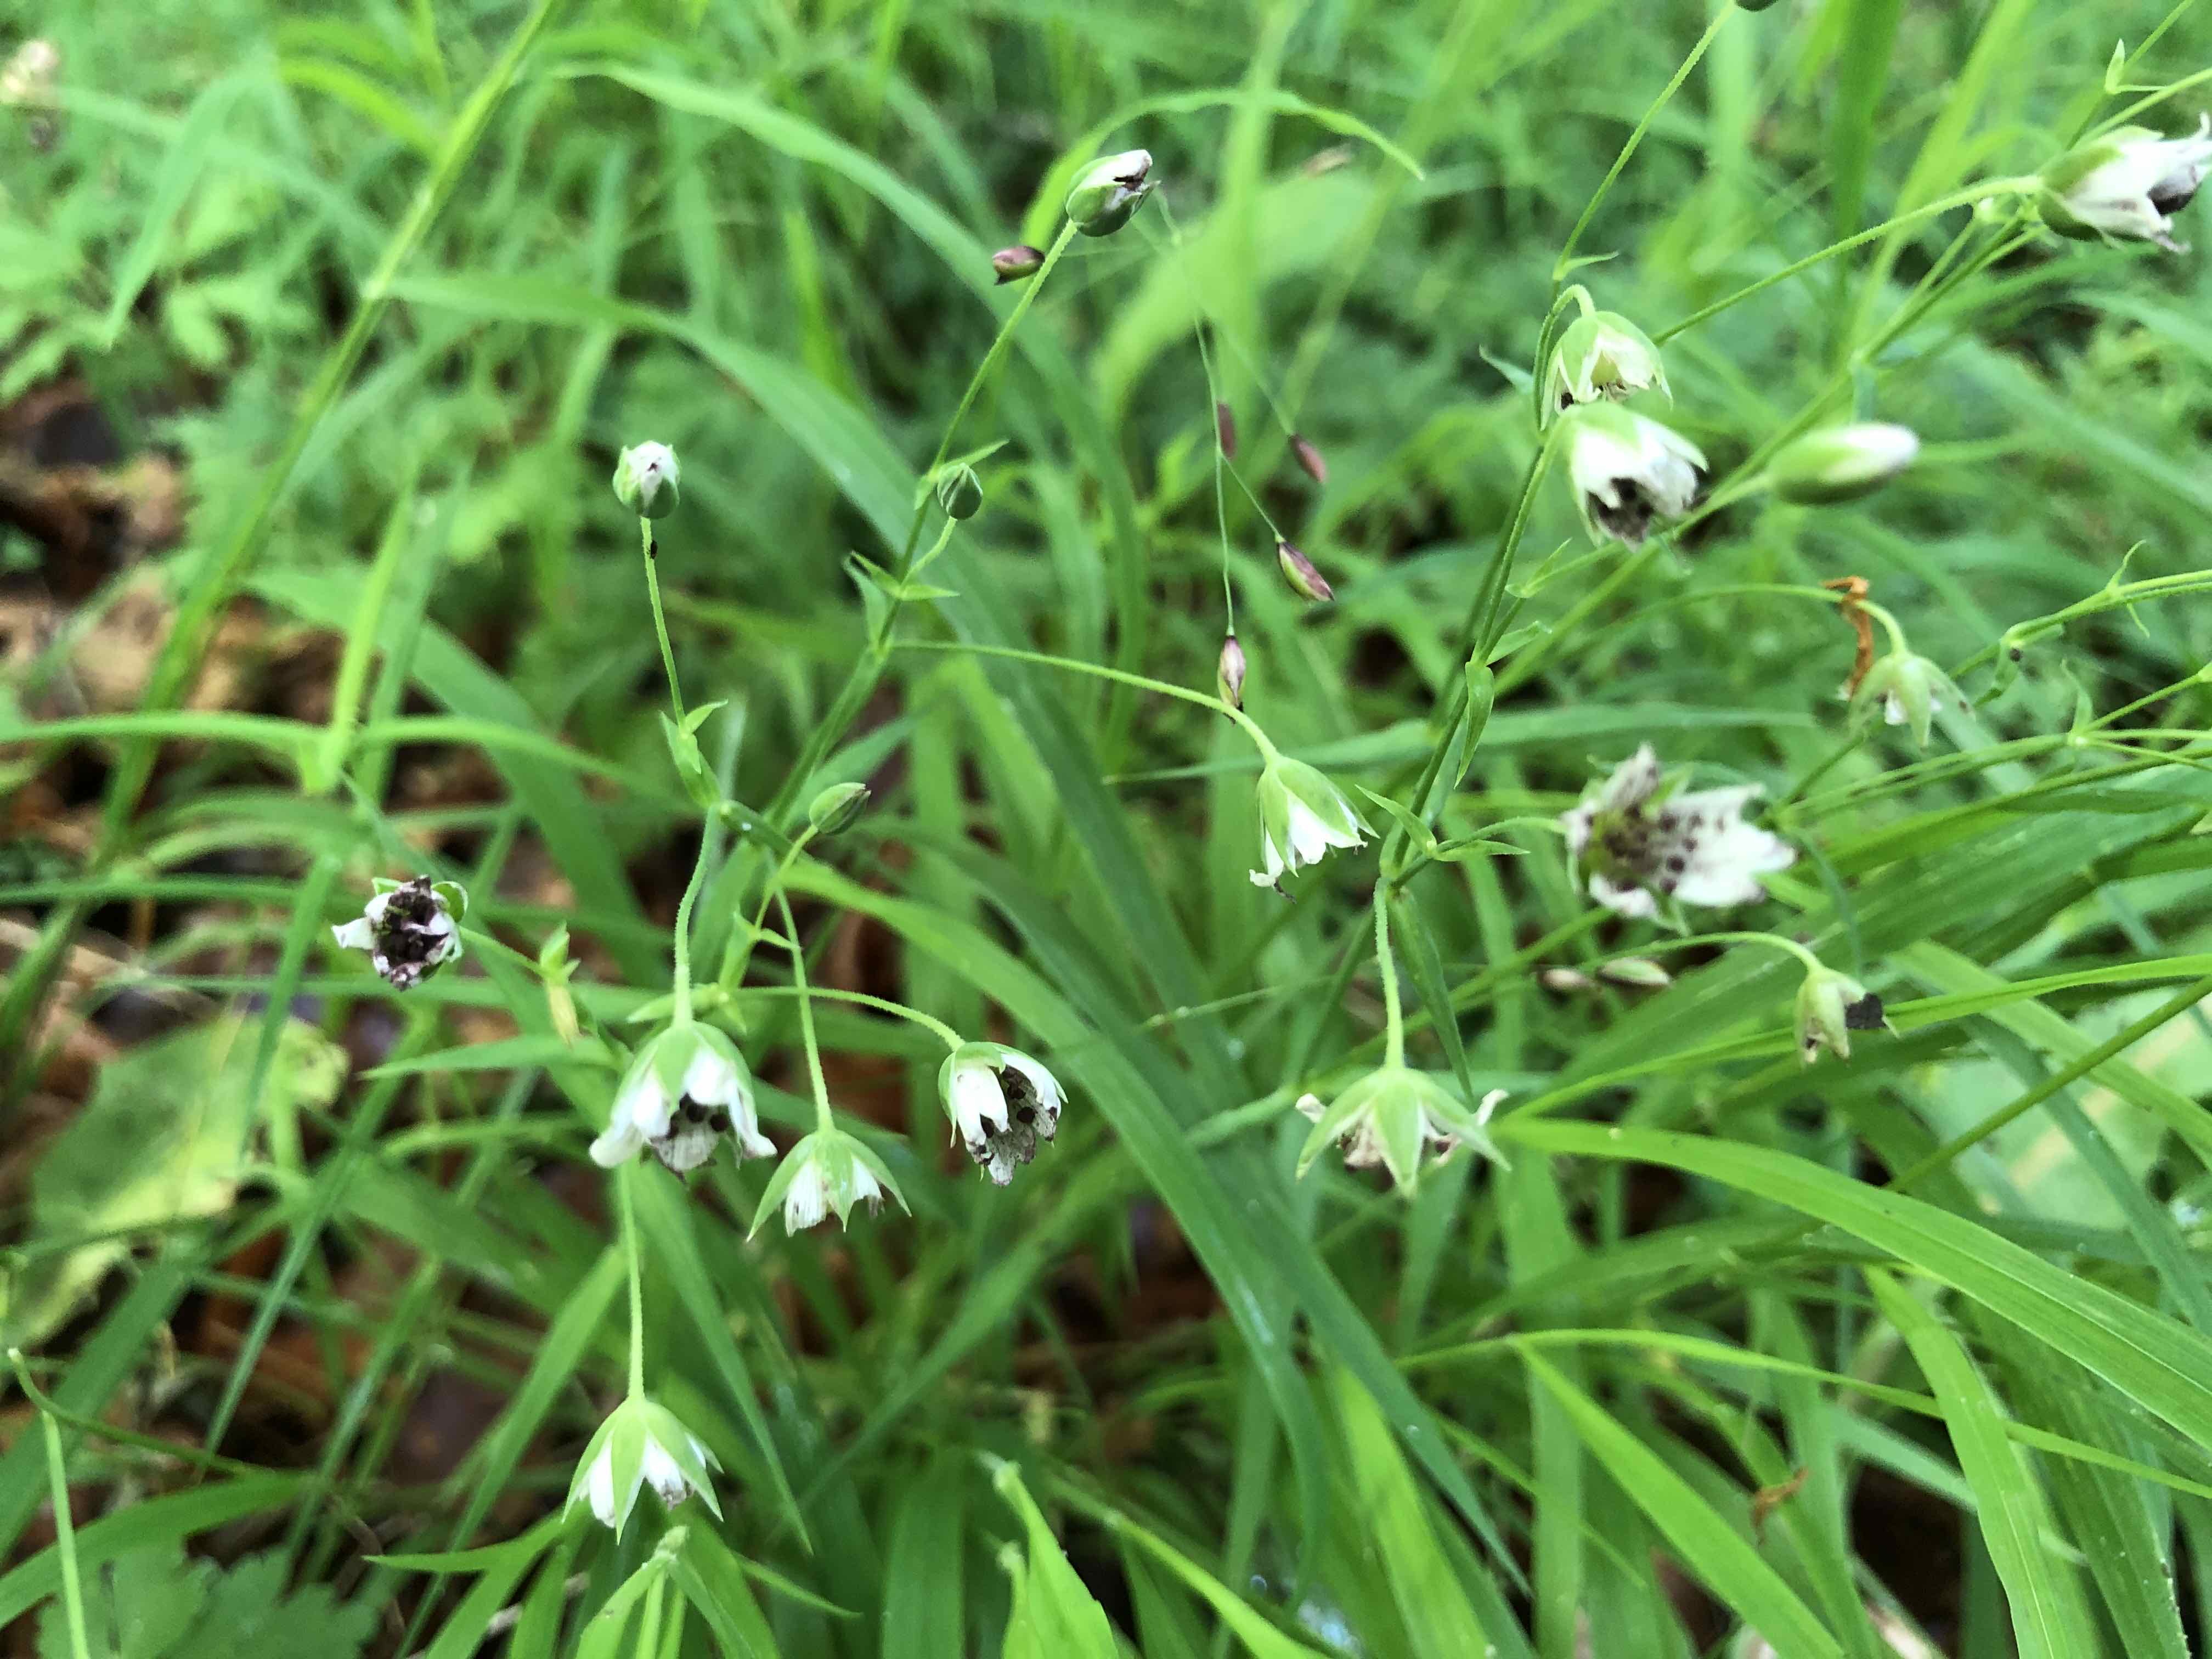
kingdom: Fungi
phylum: Basidiomycota
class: Microbotryomycetes
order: Microbotryales
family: Microbotryaceae
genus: Microbotryum
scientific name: Microbotryum stellariae
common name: fladstjerne-støvbladrust
